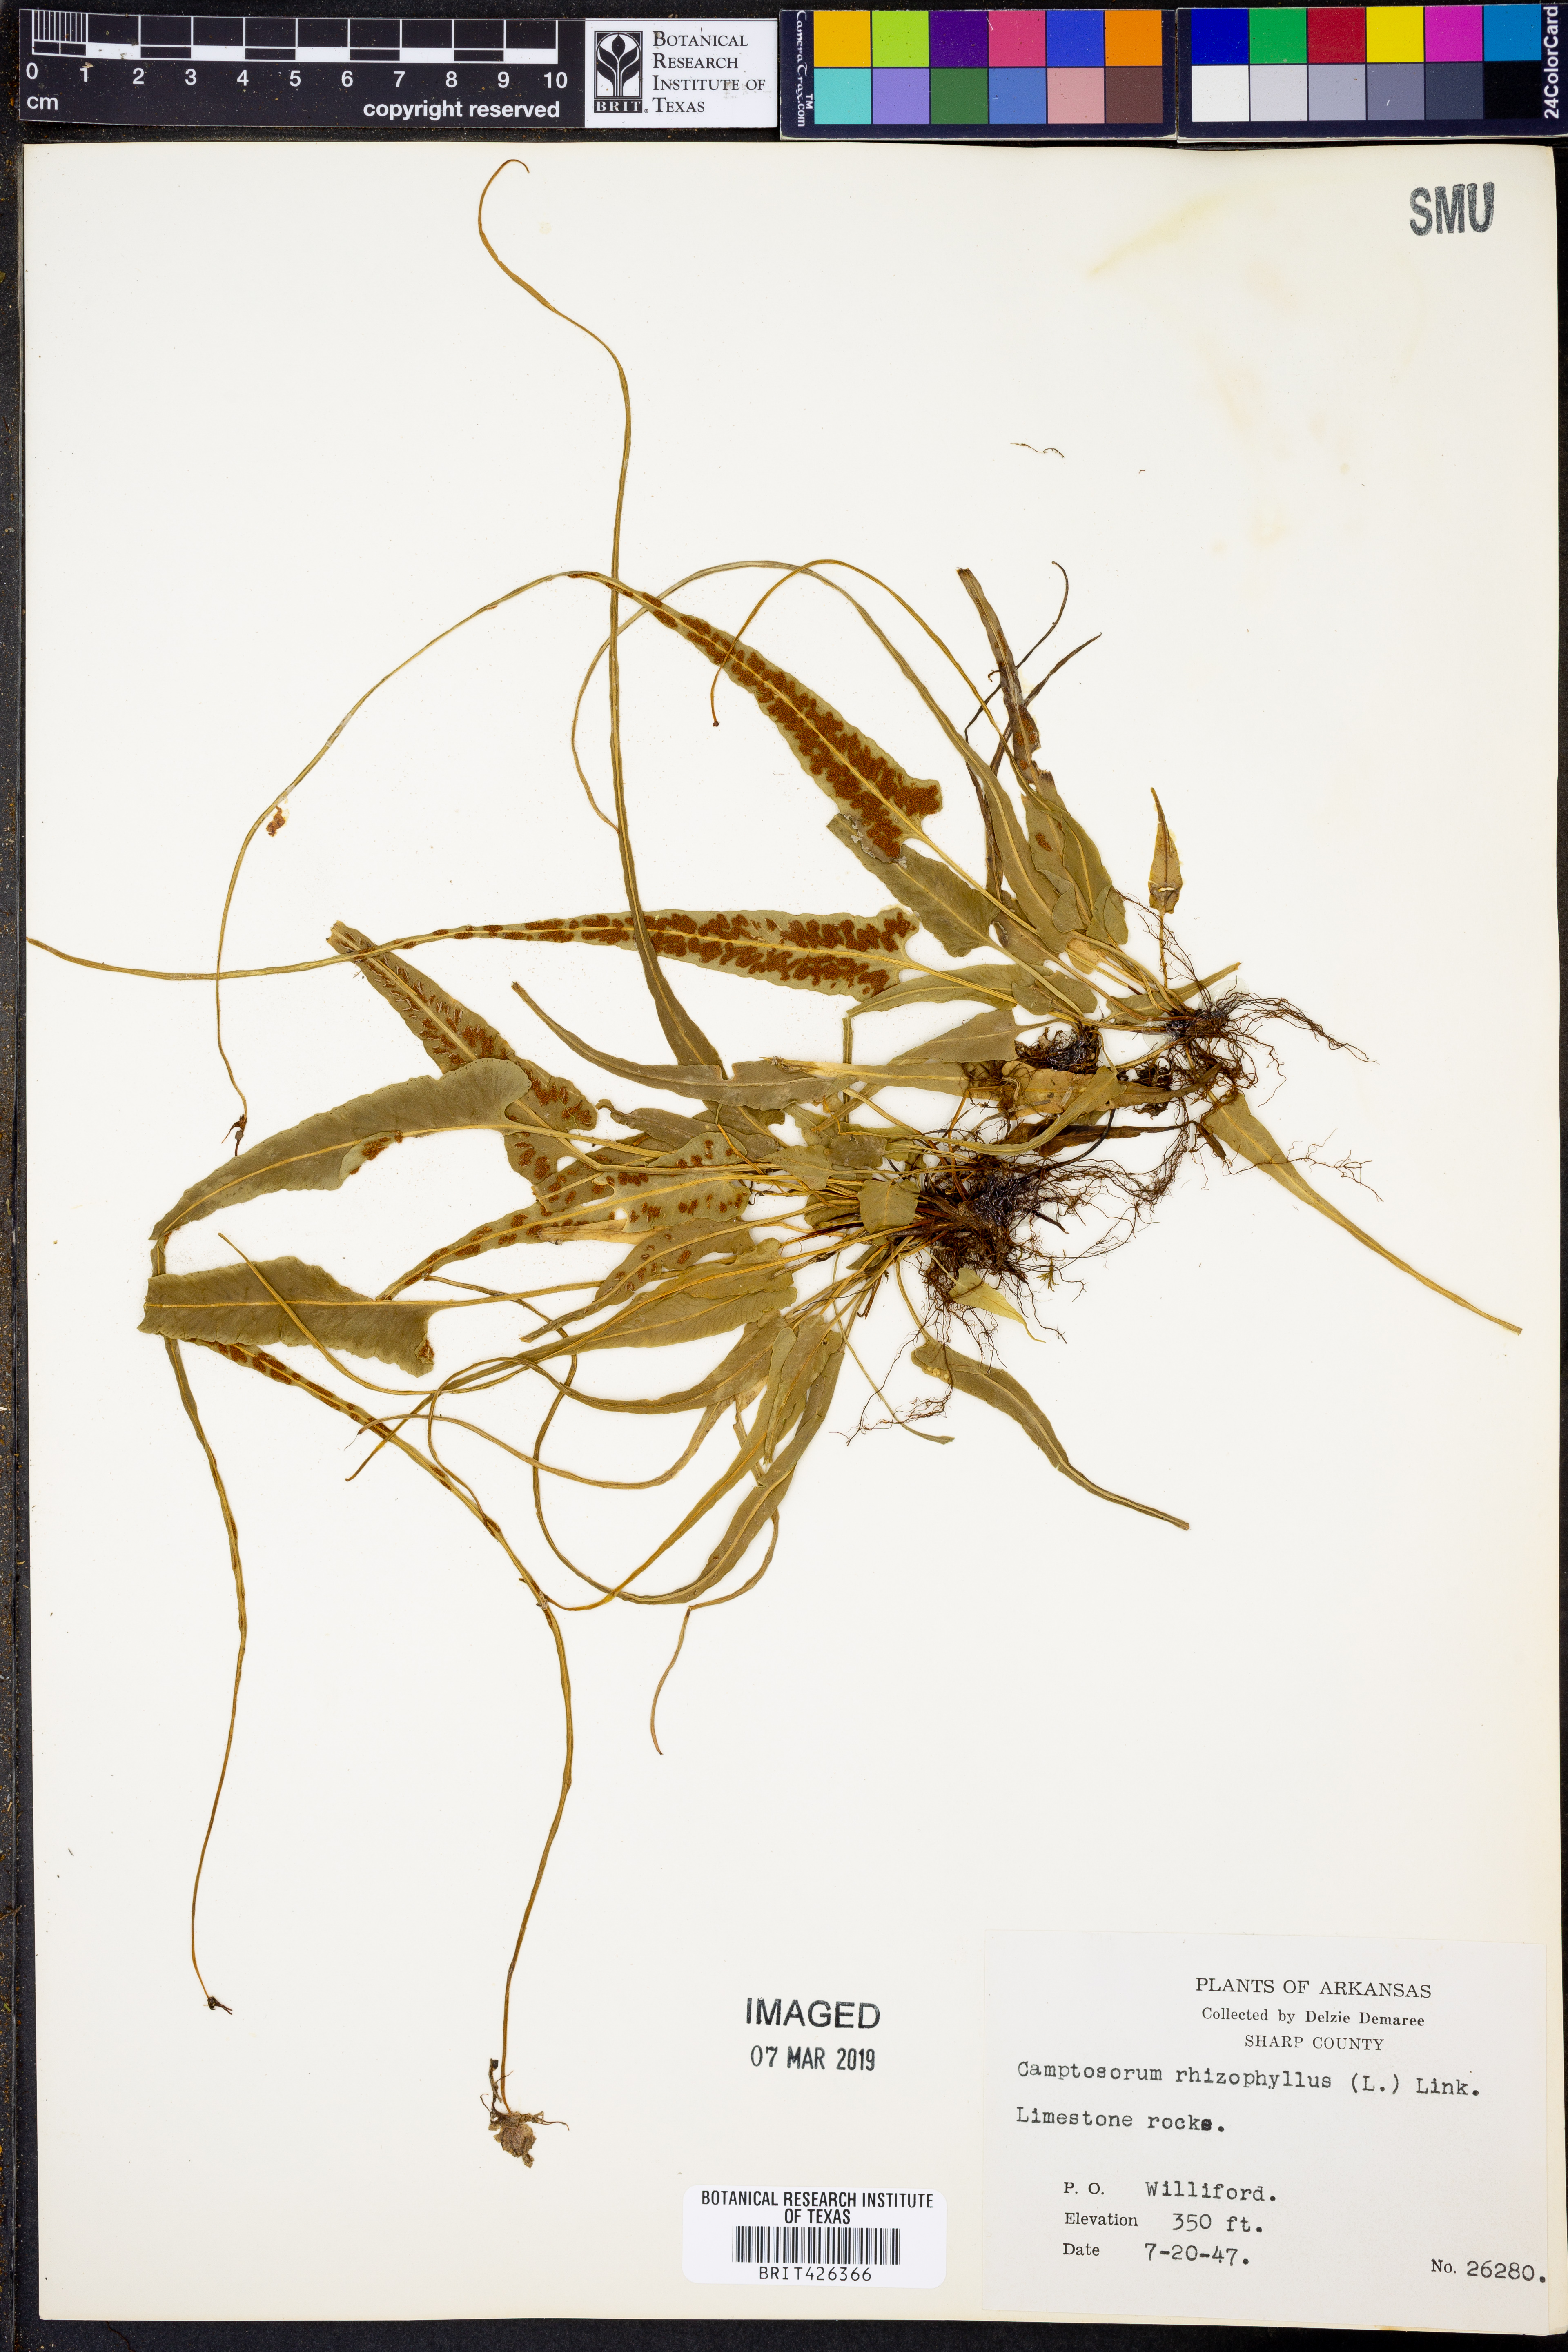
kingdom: Plantae
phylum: Tracheophyta
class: Polypodiopsida
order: Polypodiales
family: Aspleniaceae
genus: Asplenium
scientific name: Asplenium rhizophyllum
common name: Walking fern
